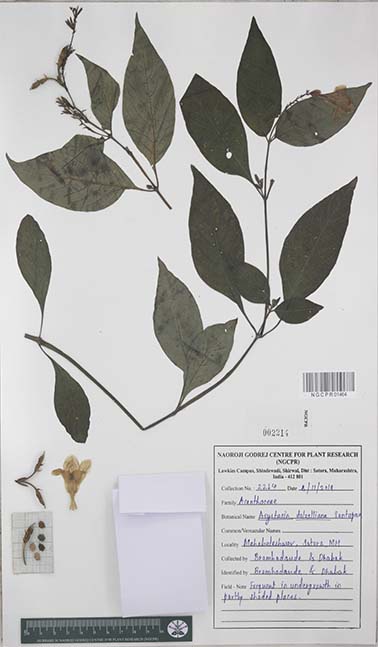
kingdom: Plantae
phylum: Tracheophyta
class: Magnoliopsida
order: Lamiales
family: Acanthaceae
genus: Asystasia
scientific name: Asystasia dalzelliana
